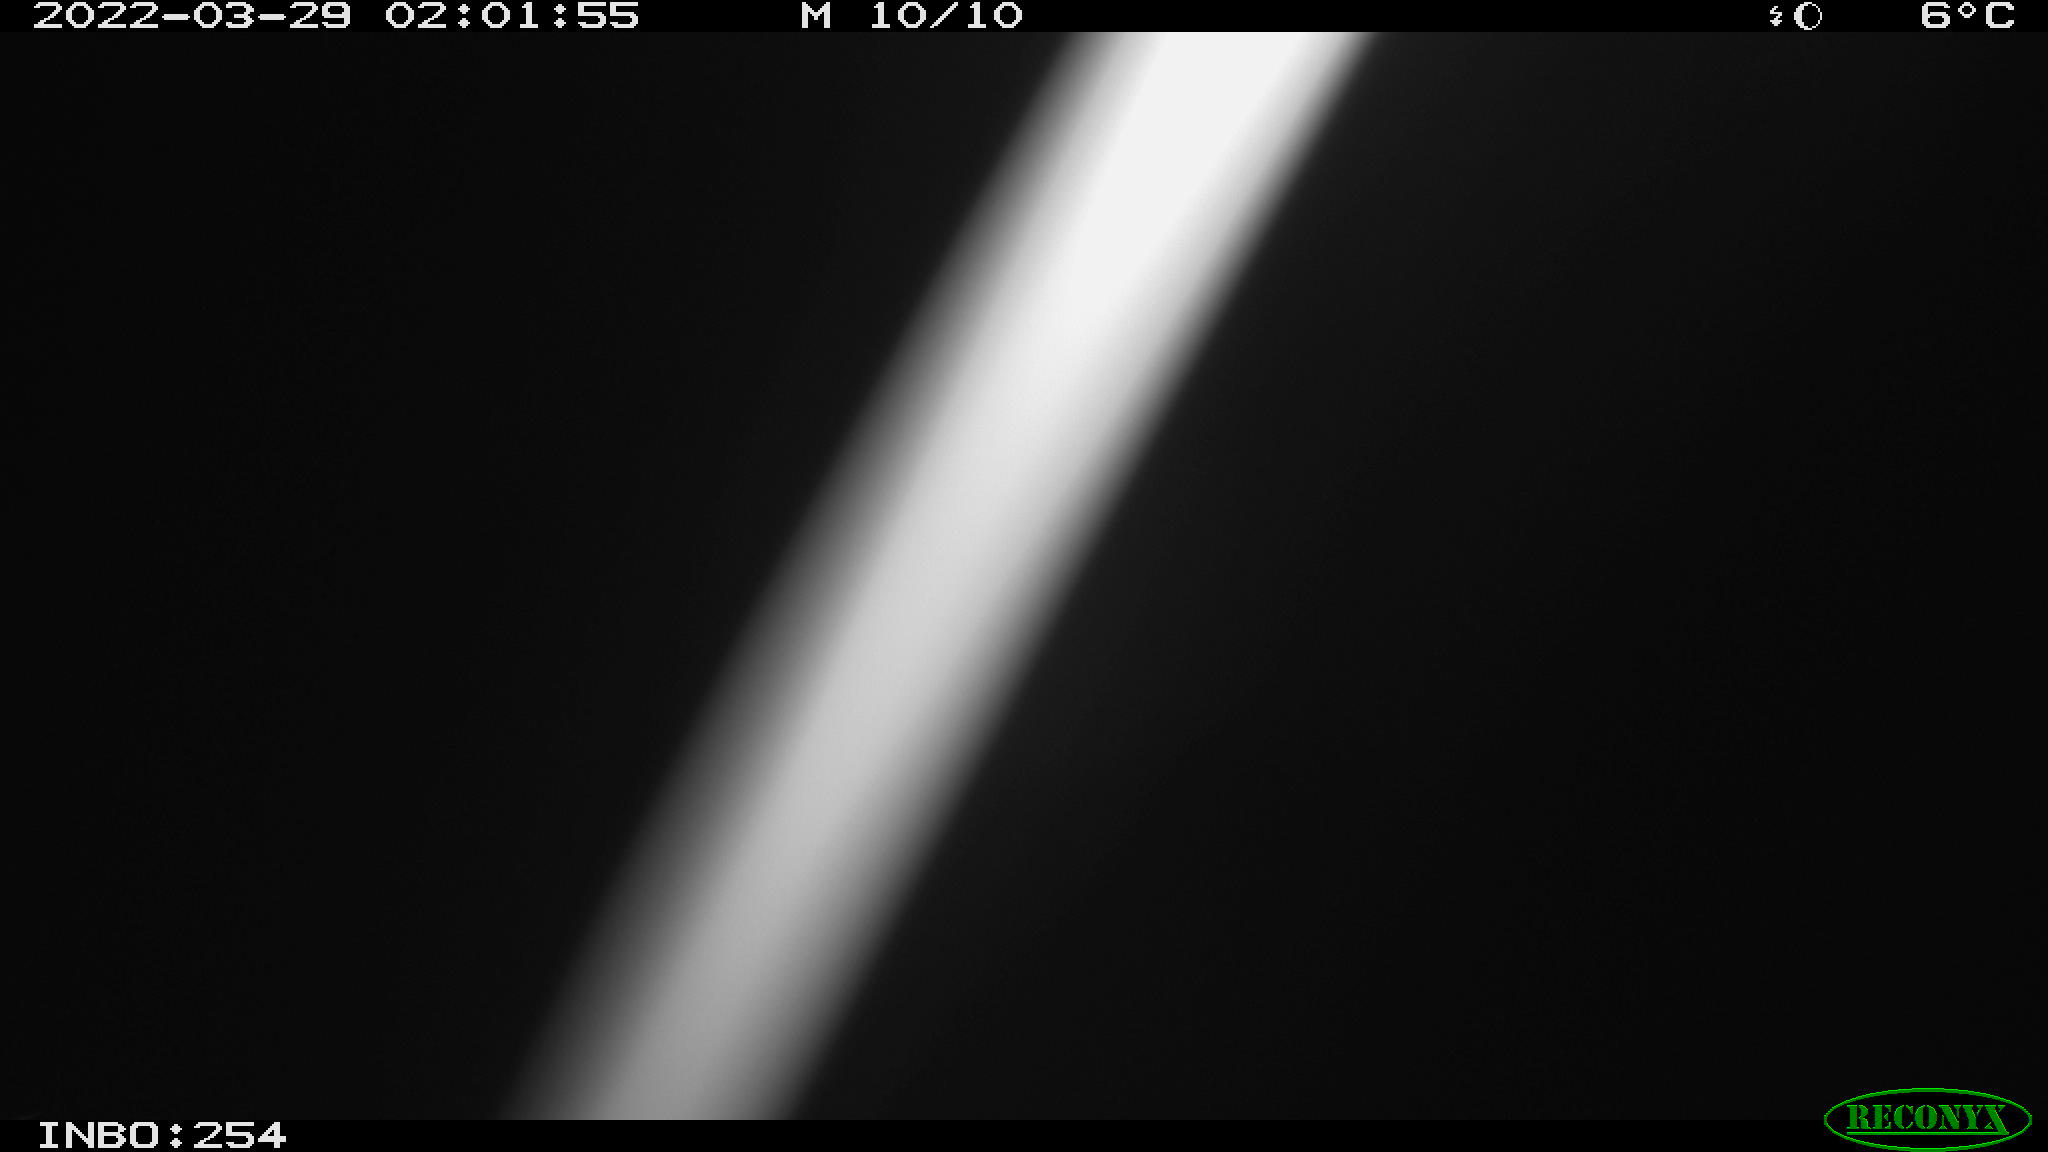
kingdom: Animalia
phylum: Chordata
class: Aves
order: Anseriformes
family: Anatidae
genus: Anas
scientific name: Anas platyrhynchos
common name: Mallard
